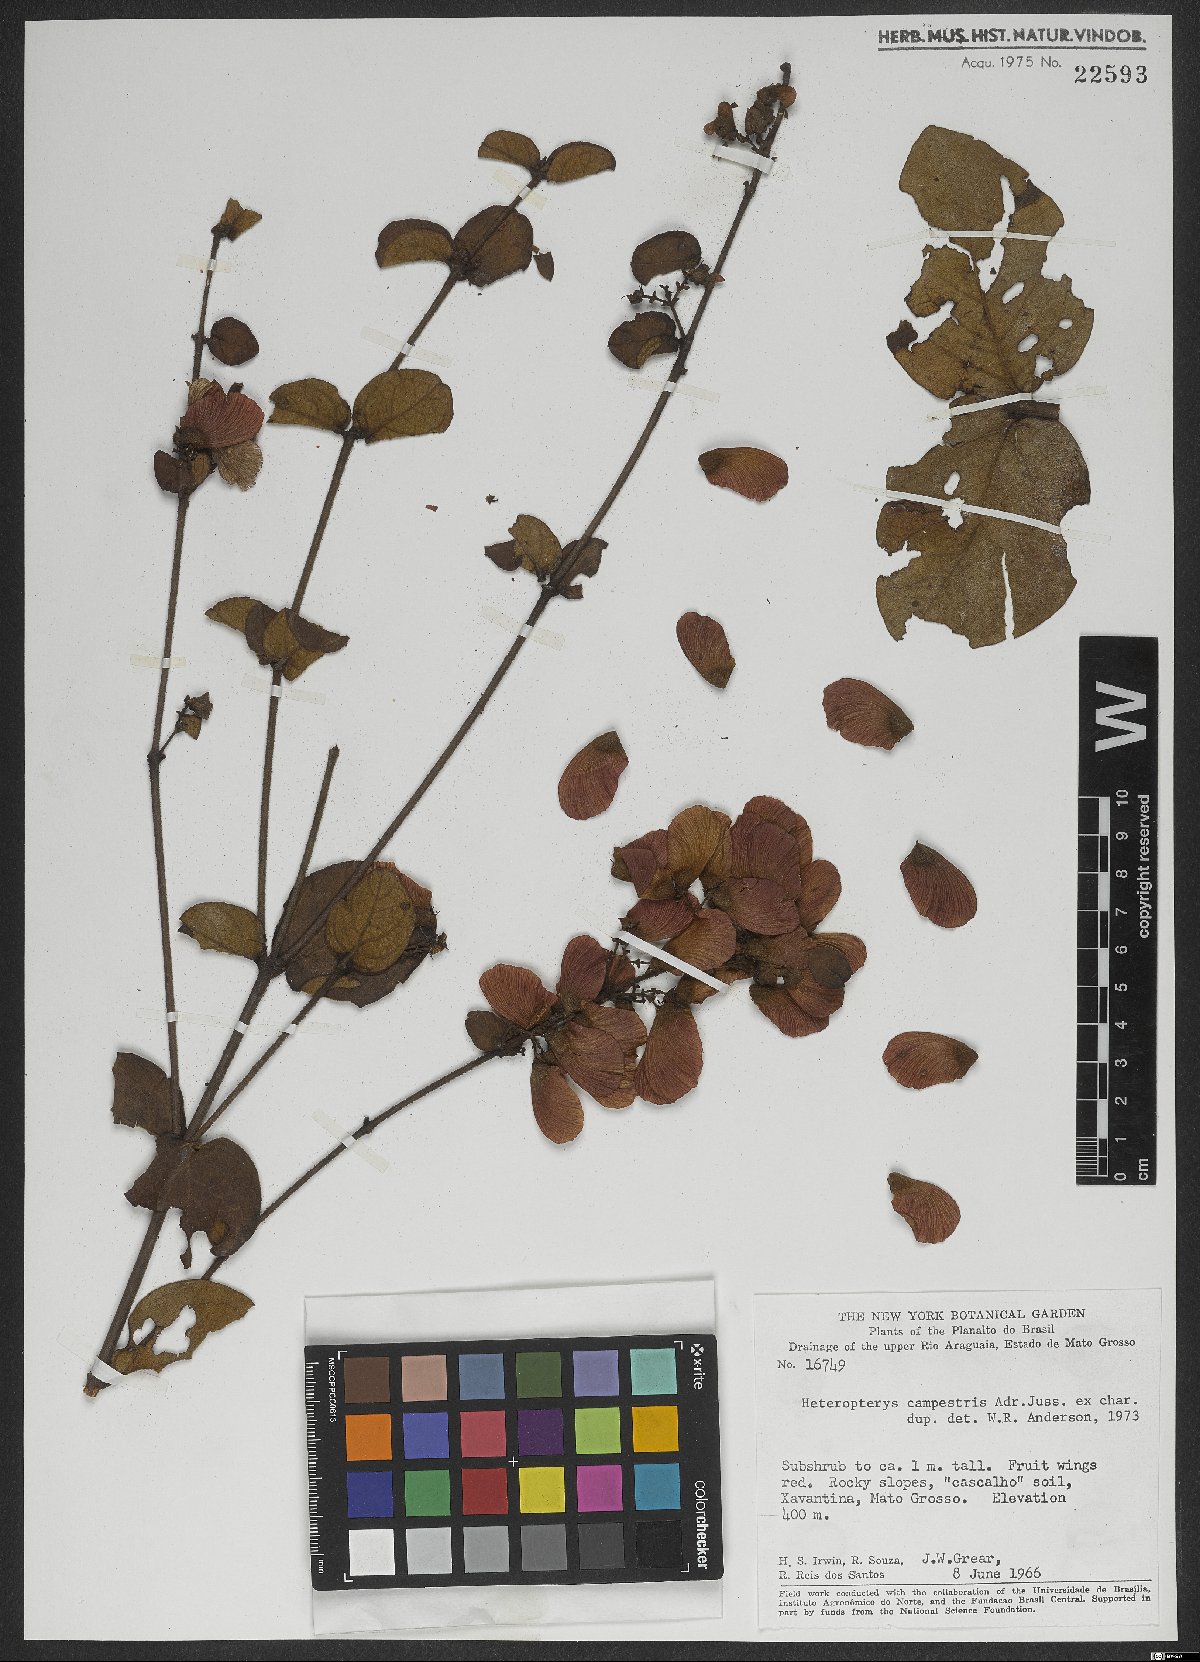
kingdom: Plantae
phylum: Tracheophyta
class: Magnoliopsida
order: Malpighiales
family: Malpighiaceae
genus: Heteropterys
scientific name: Heteropterys campestris
